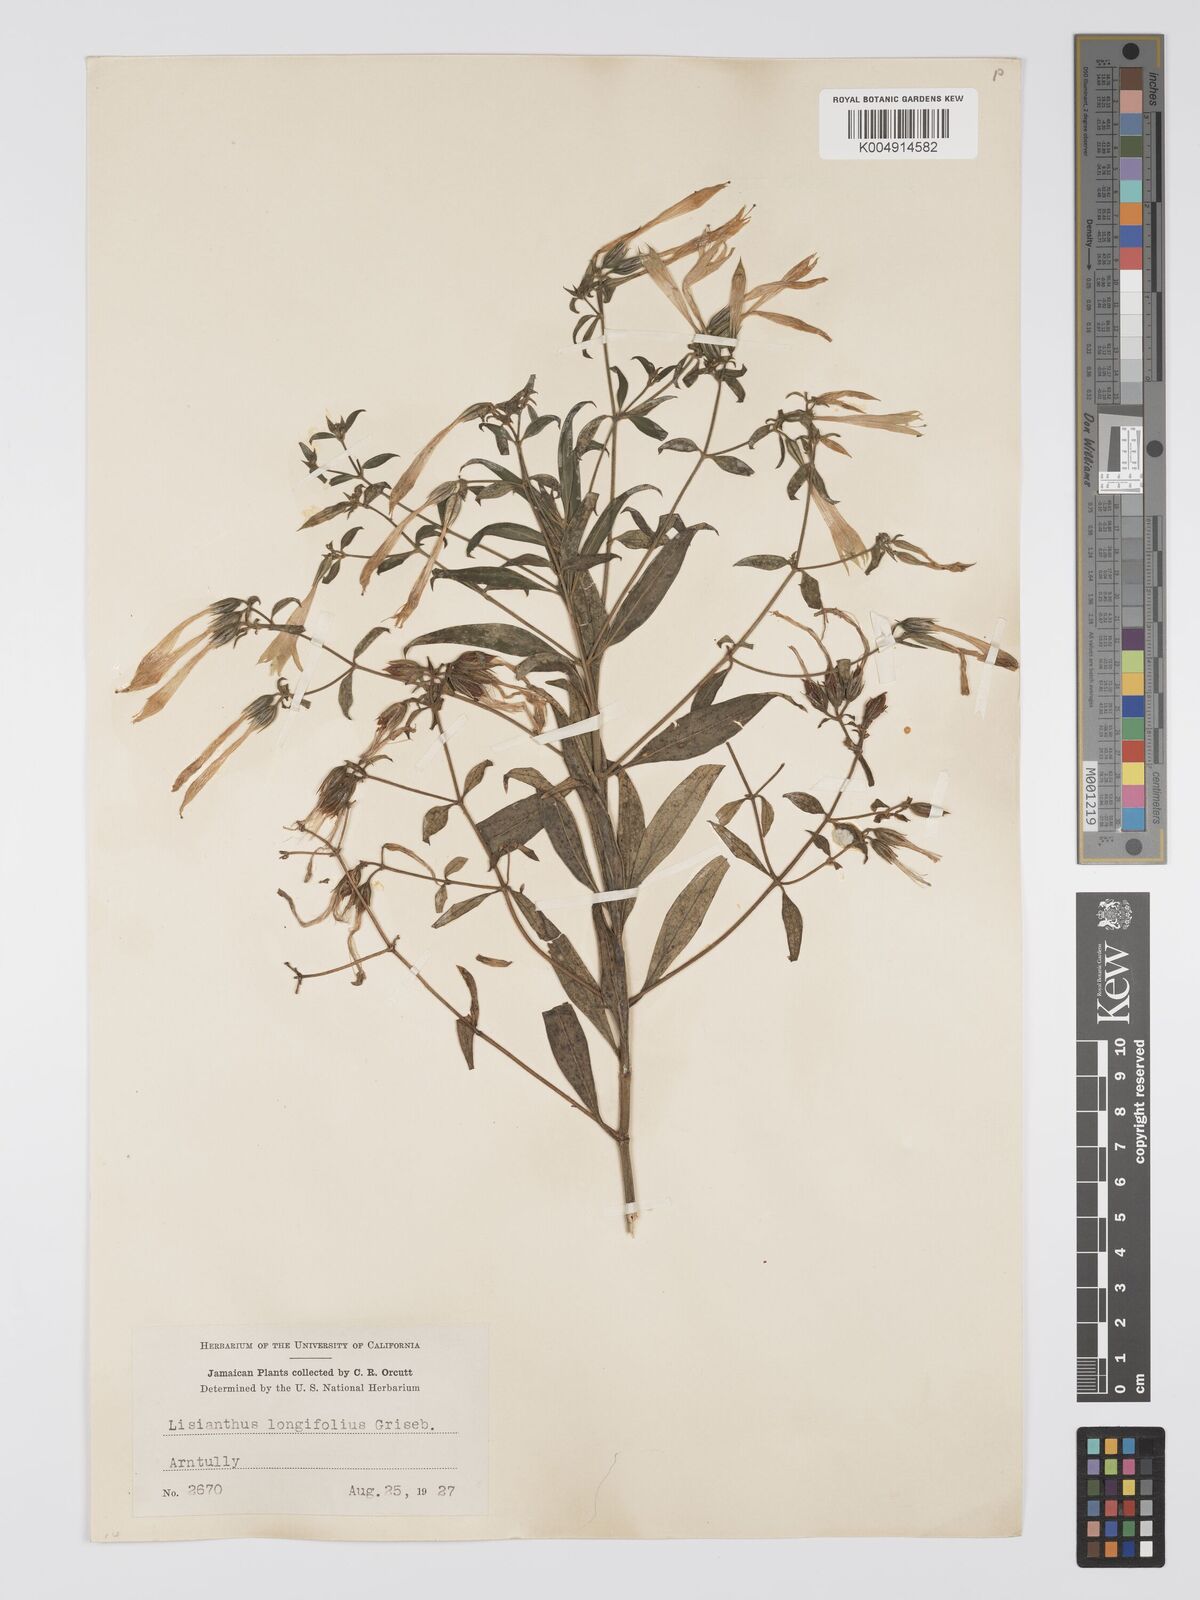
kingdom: Plantae
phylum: Tracheophyta
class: Magnoliopsida
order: Gentianales
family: Gentianaceae
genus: Lisianthus
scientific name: Lisianthus longifolius
